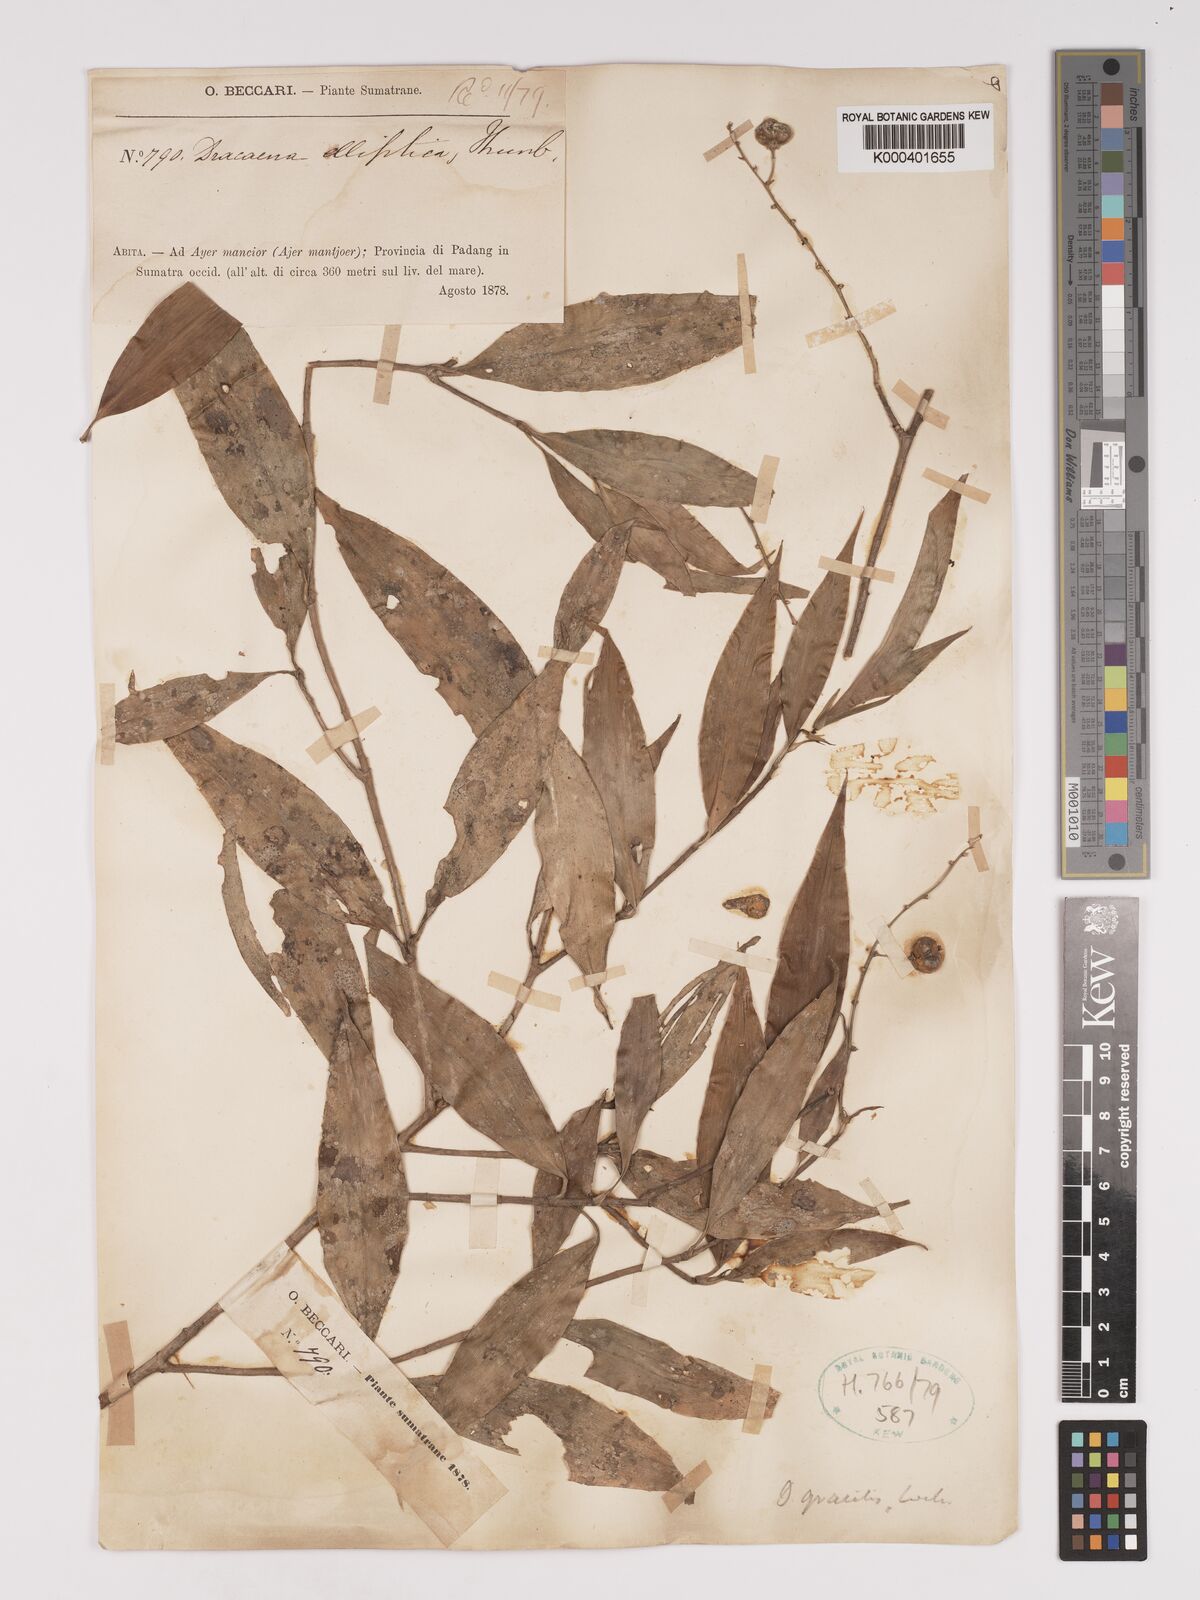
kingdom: Plantae
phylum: Tracheophyta
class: Liliopsida
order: Asparagales
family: Asparagaceae
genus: Dracaena
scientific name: Dracaena elliptica
